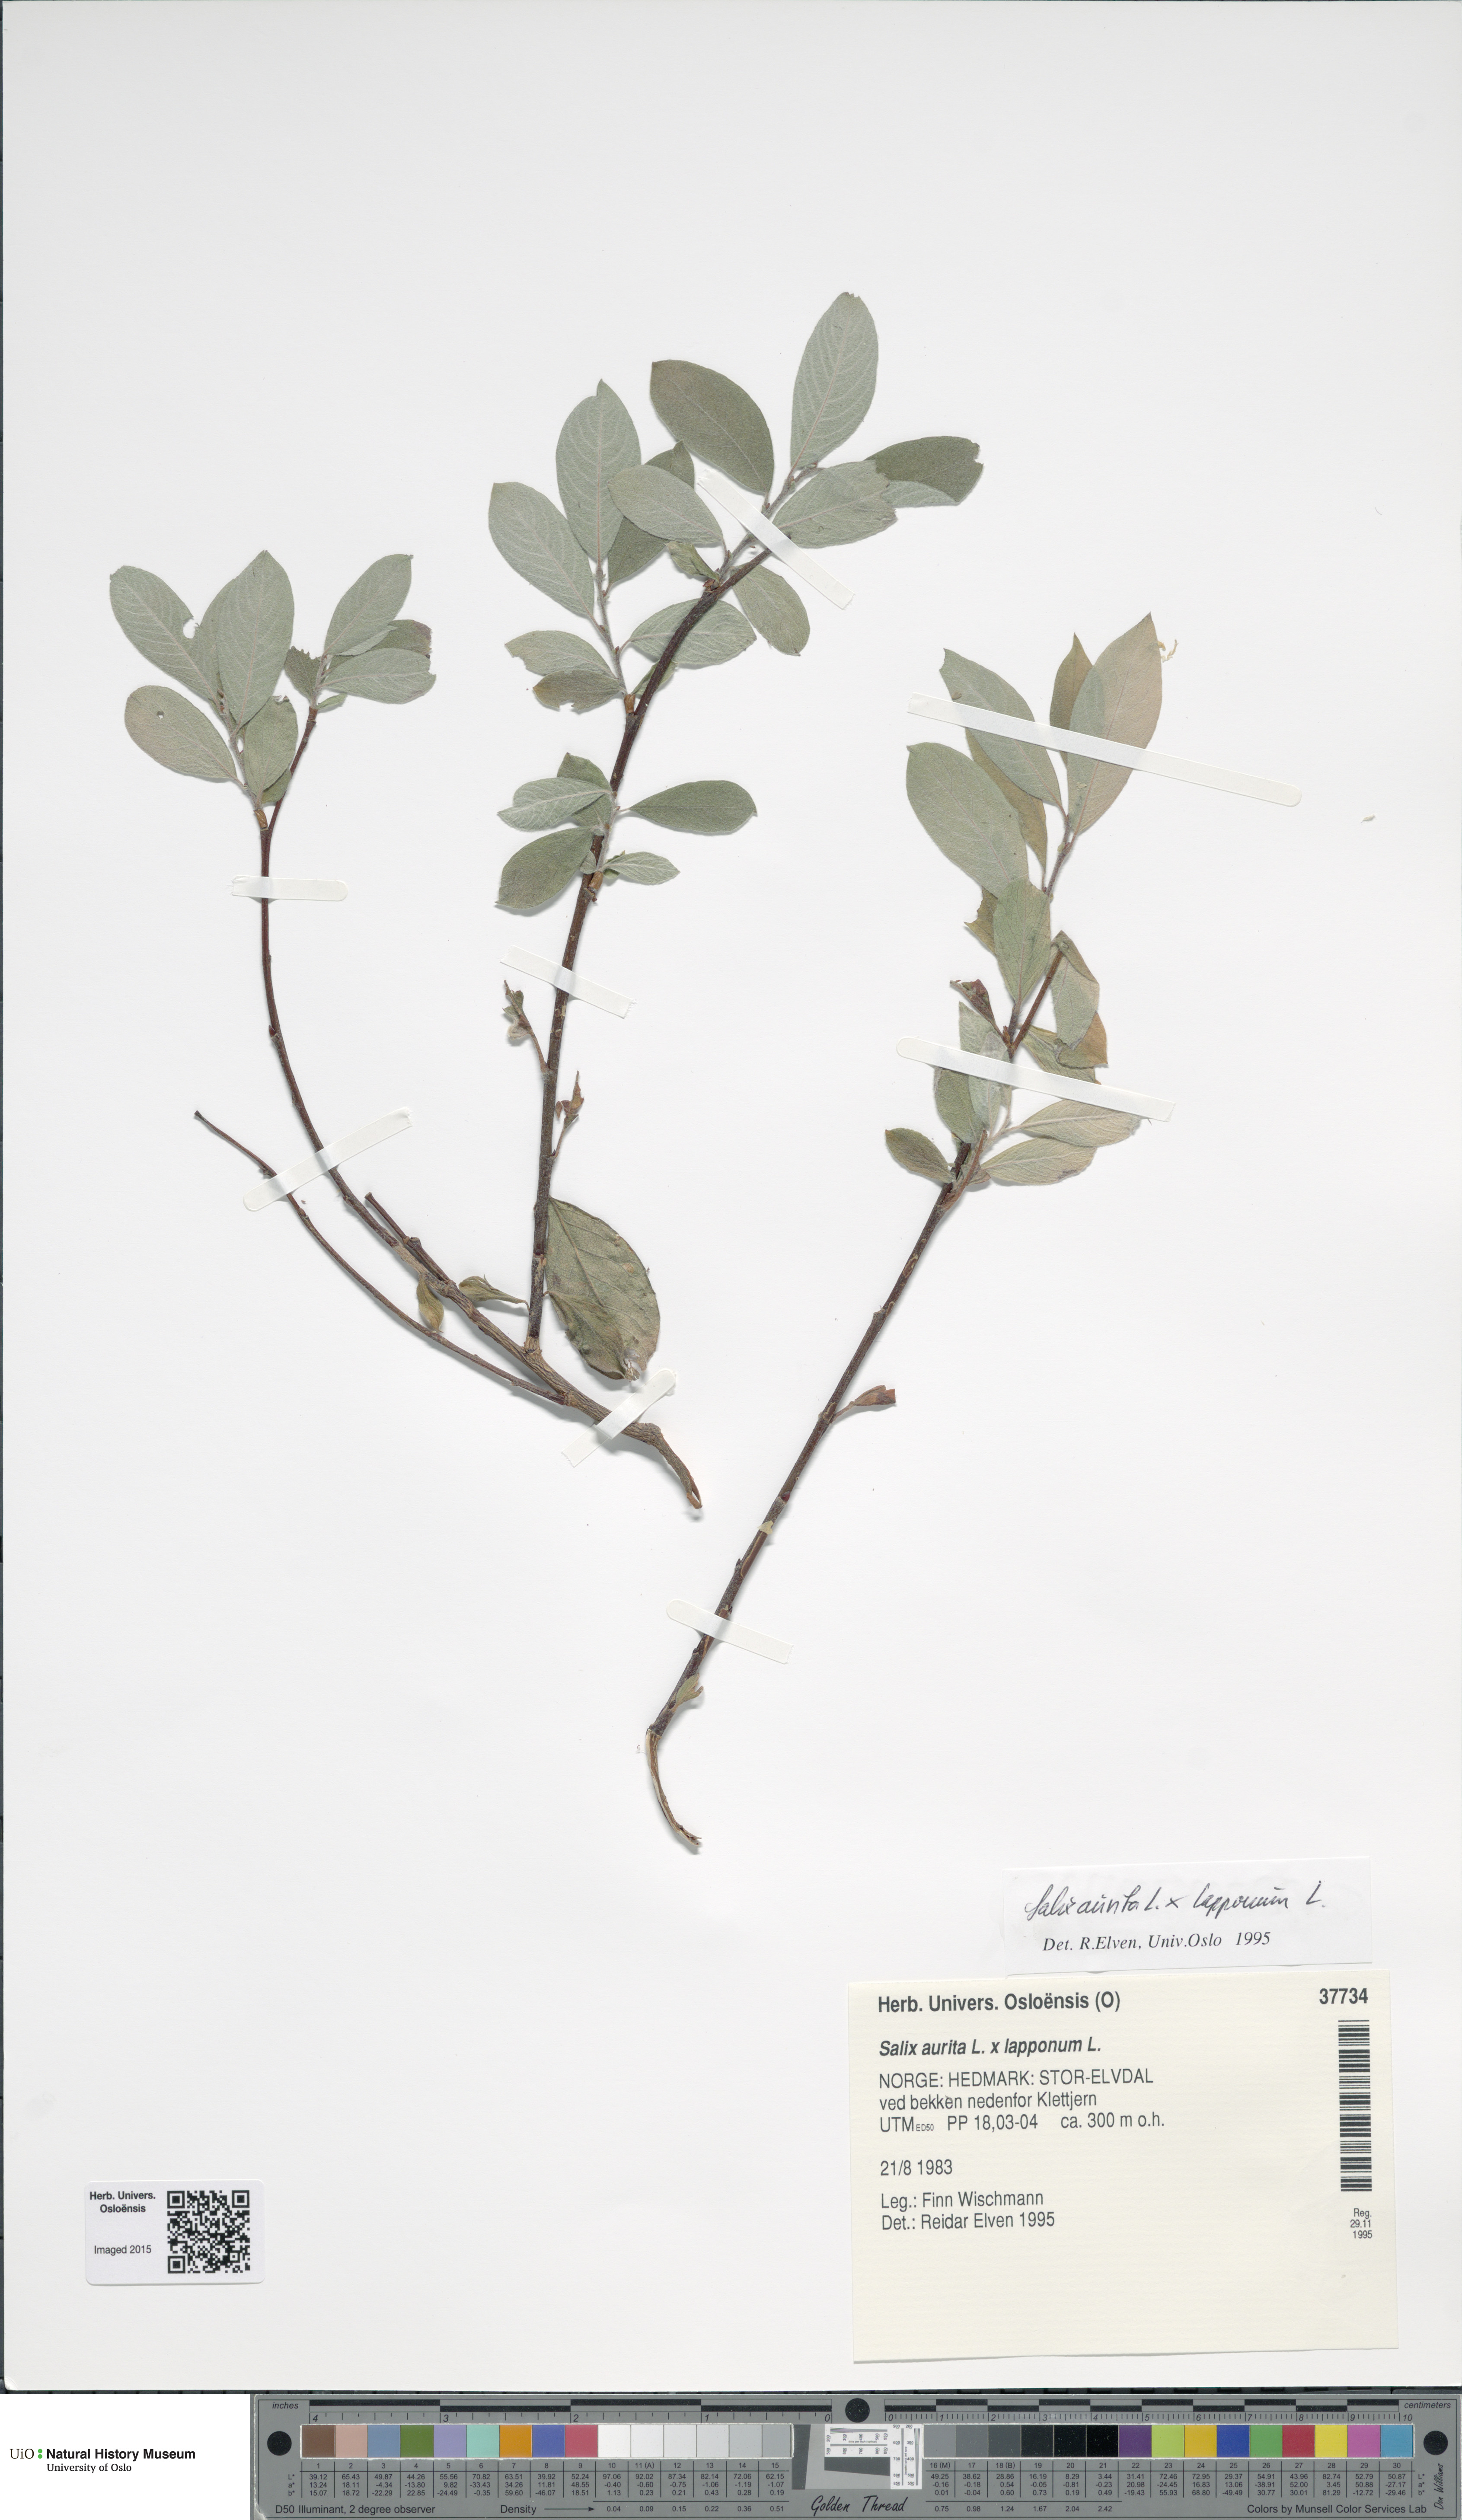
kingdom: Plantae
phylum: Tracheophyta
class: Magnoliopsida
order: Malpighiales
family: Salicaceae
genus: Salix
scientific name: Salix
